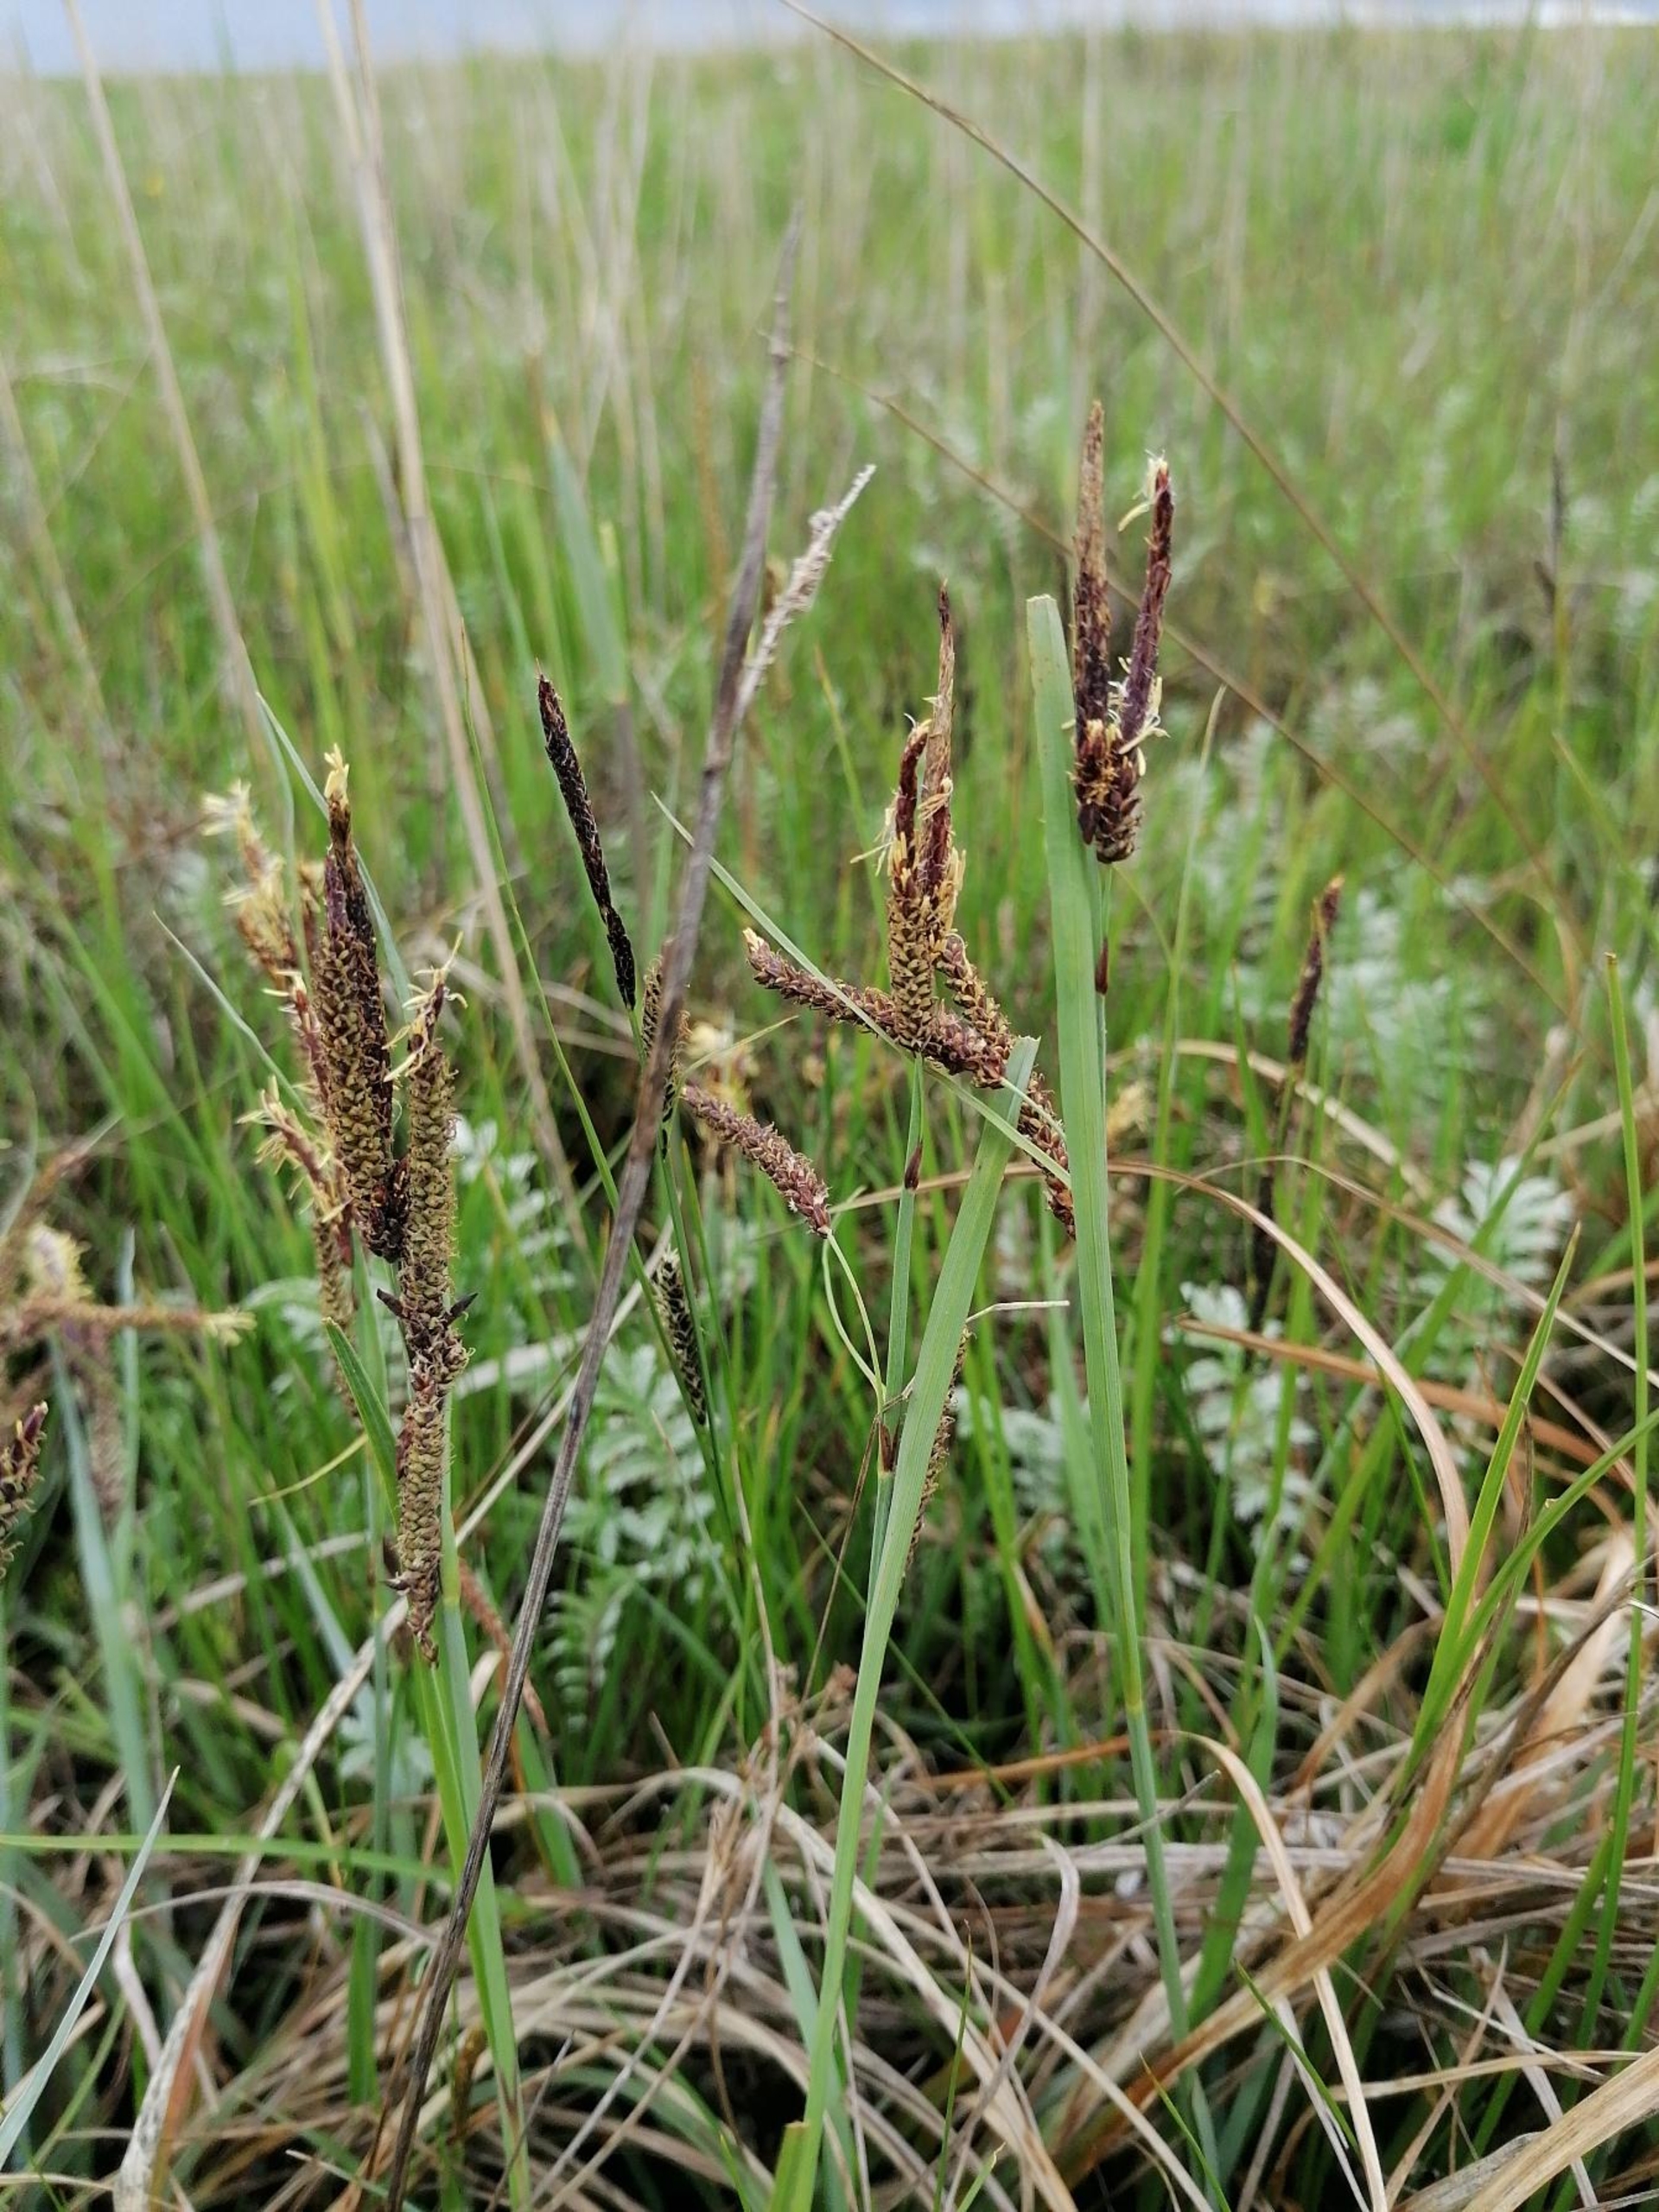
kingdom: Plantae
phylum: Tracheophyta
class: Liliopsida
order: Poales
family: Cyperaceae
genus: Carex
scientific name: Carex flacca
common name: Blågrøn star
